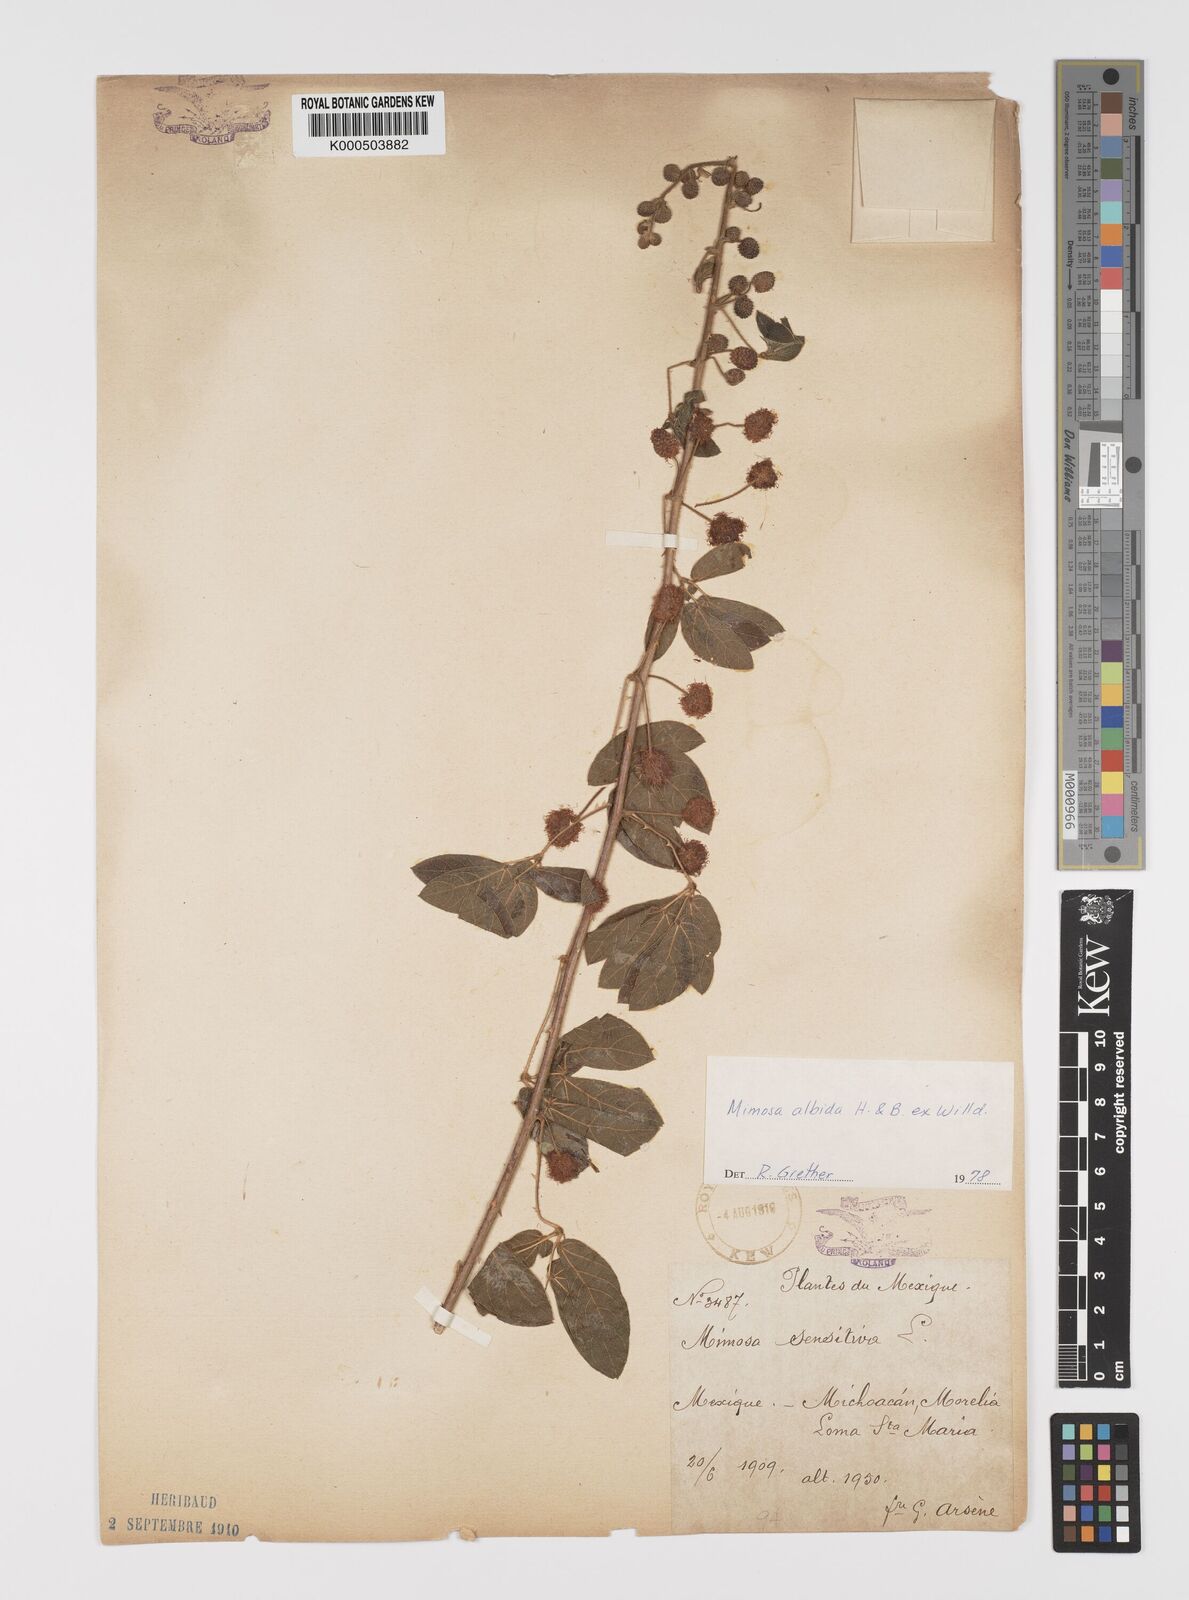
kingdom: Plantae
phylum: Tracheophyta
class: Magnoliopsida
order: Fabales
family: Fabaceae
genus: Mimosa
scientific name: Mimosa albida
